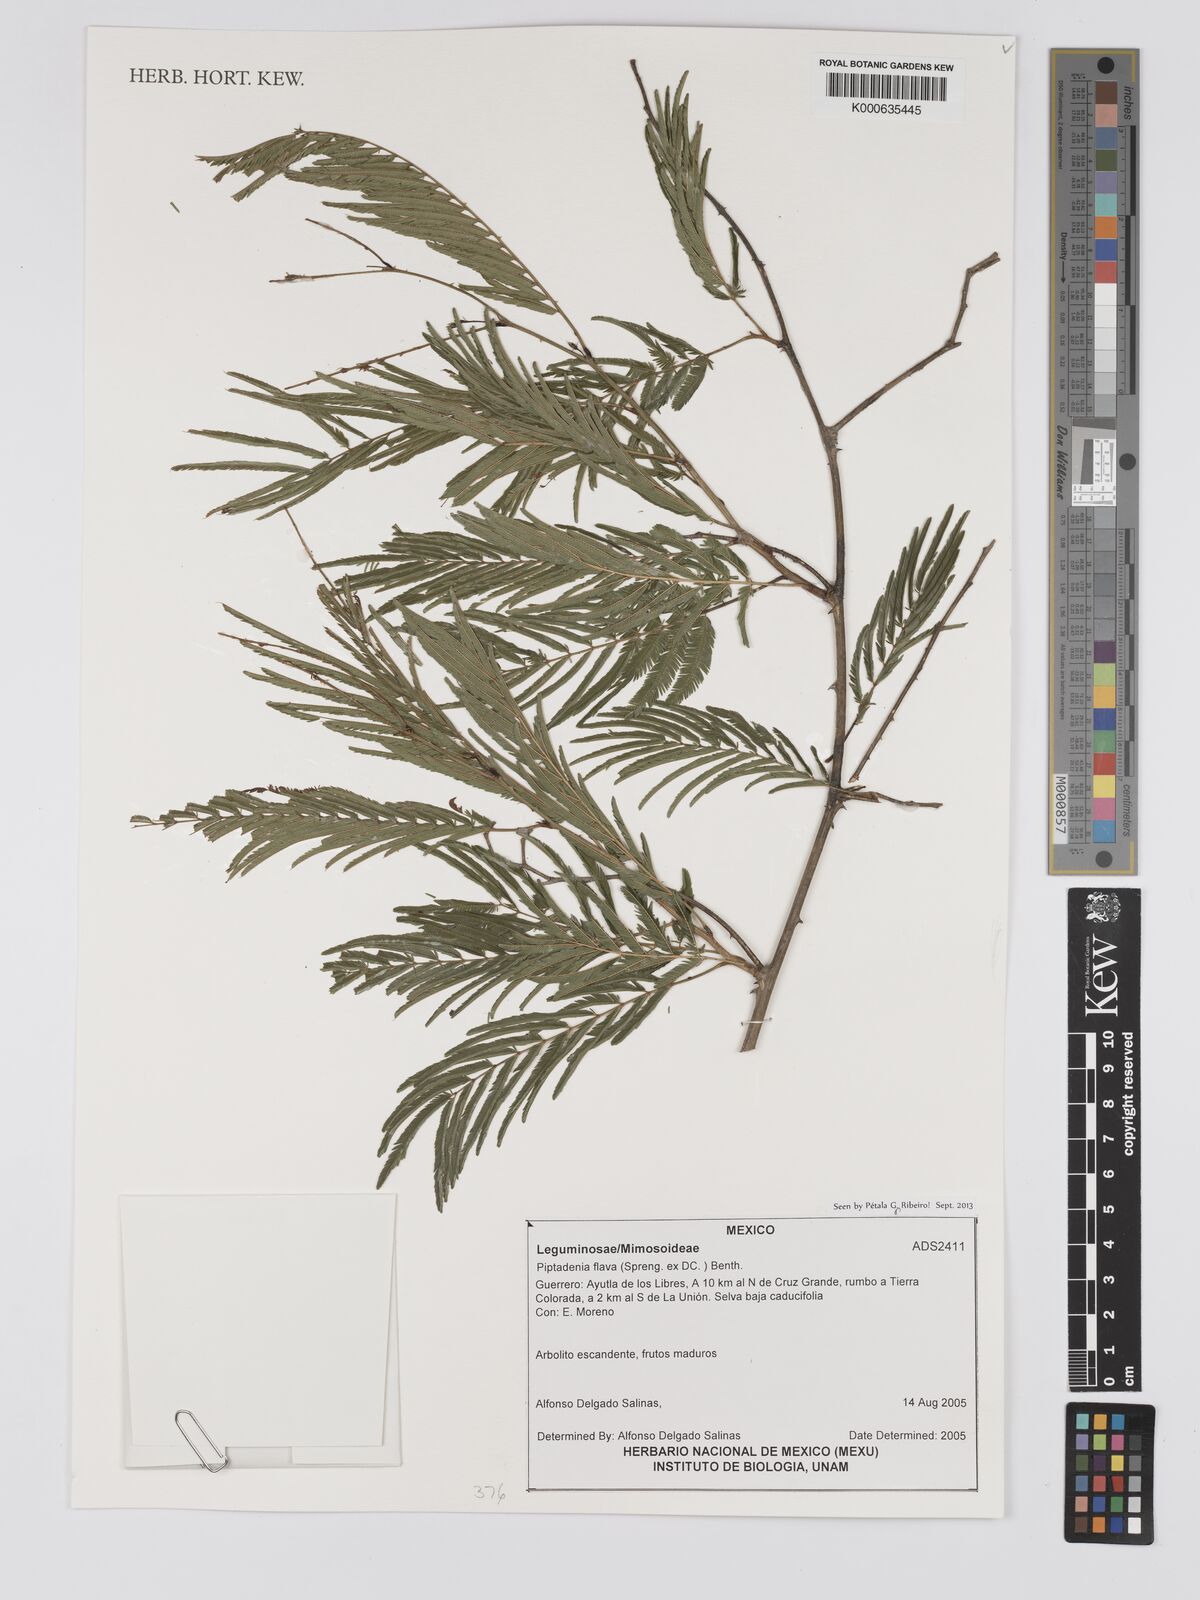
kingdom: Plantae
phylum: Tracheophyta
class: Magnoliopsida
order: Fabales
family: Fabaceae
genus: Piptadenia
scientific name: Piptadenia retusa
